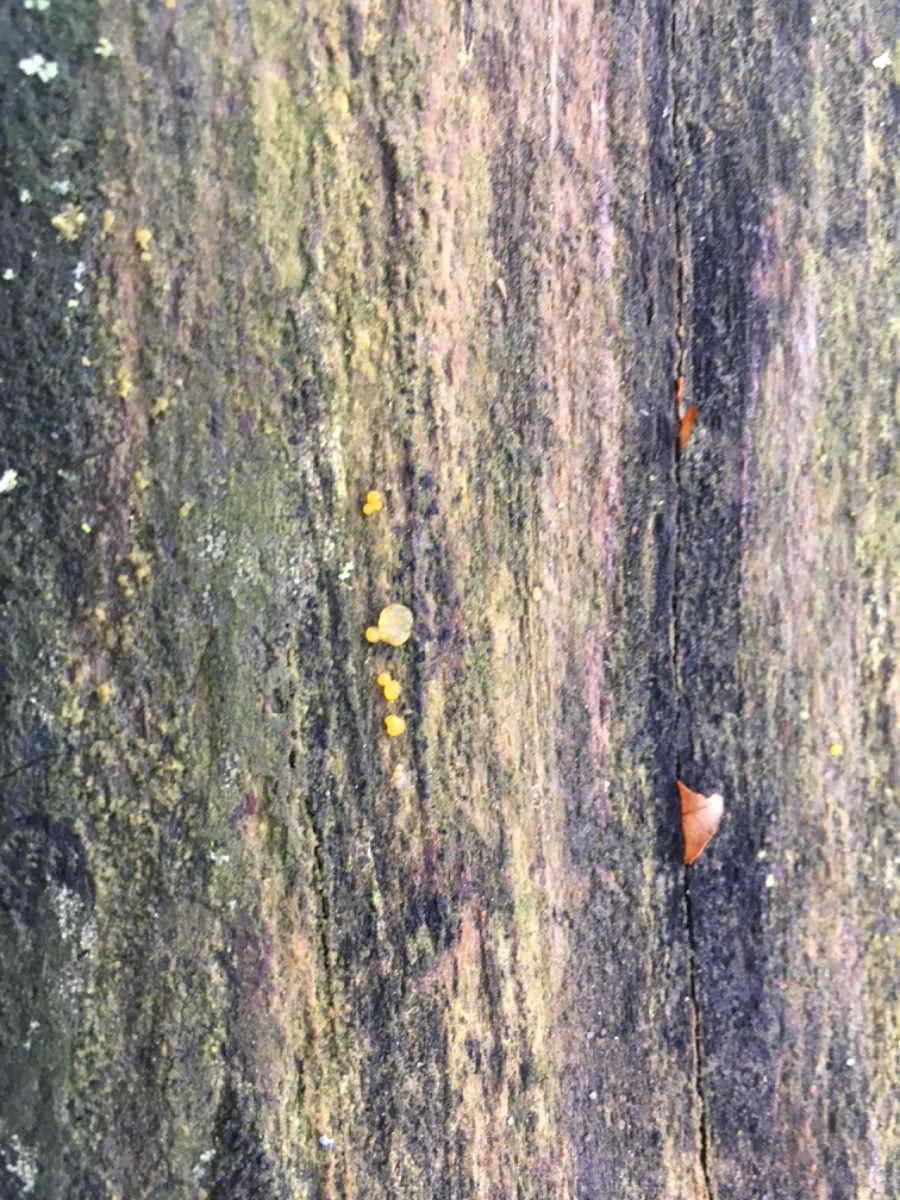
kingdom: Fungi
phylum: Basidiomycota
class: Dacrymycetes
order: Dacrymycetales
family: Dacrymycetaceae
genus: Dacrymyces
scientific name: Dacrymyces
